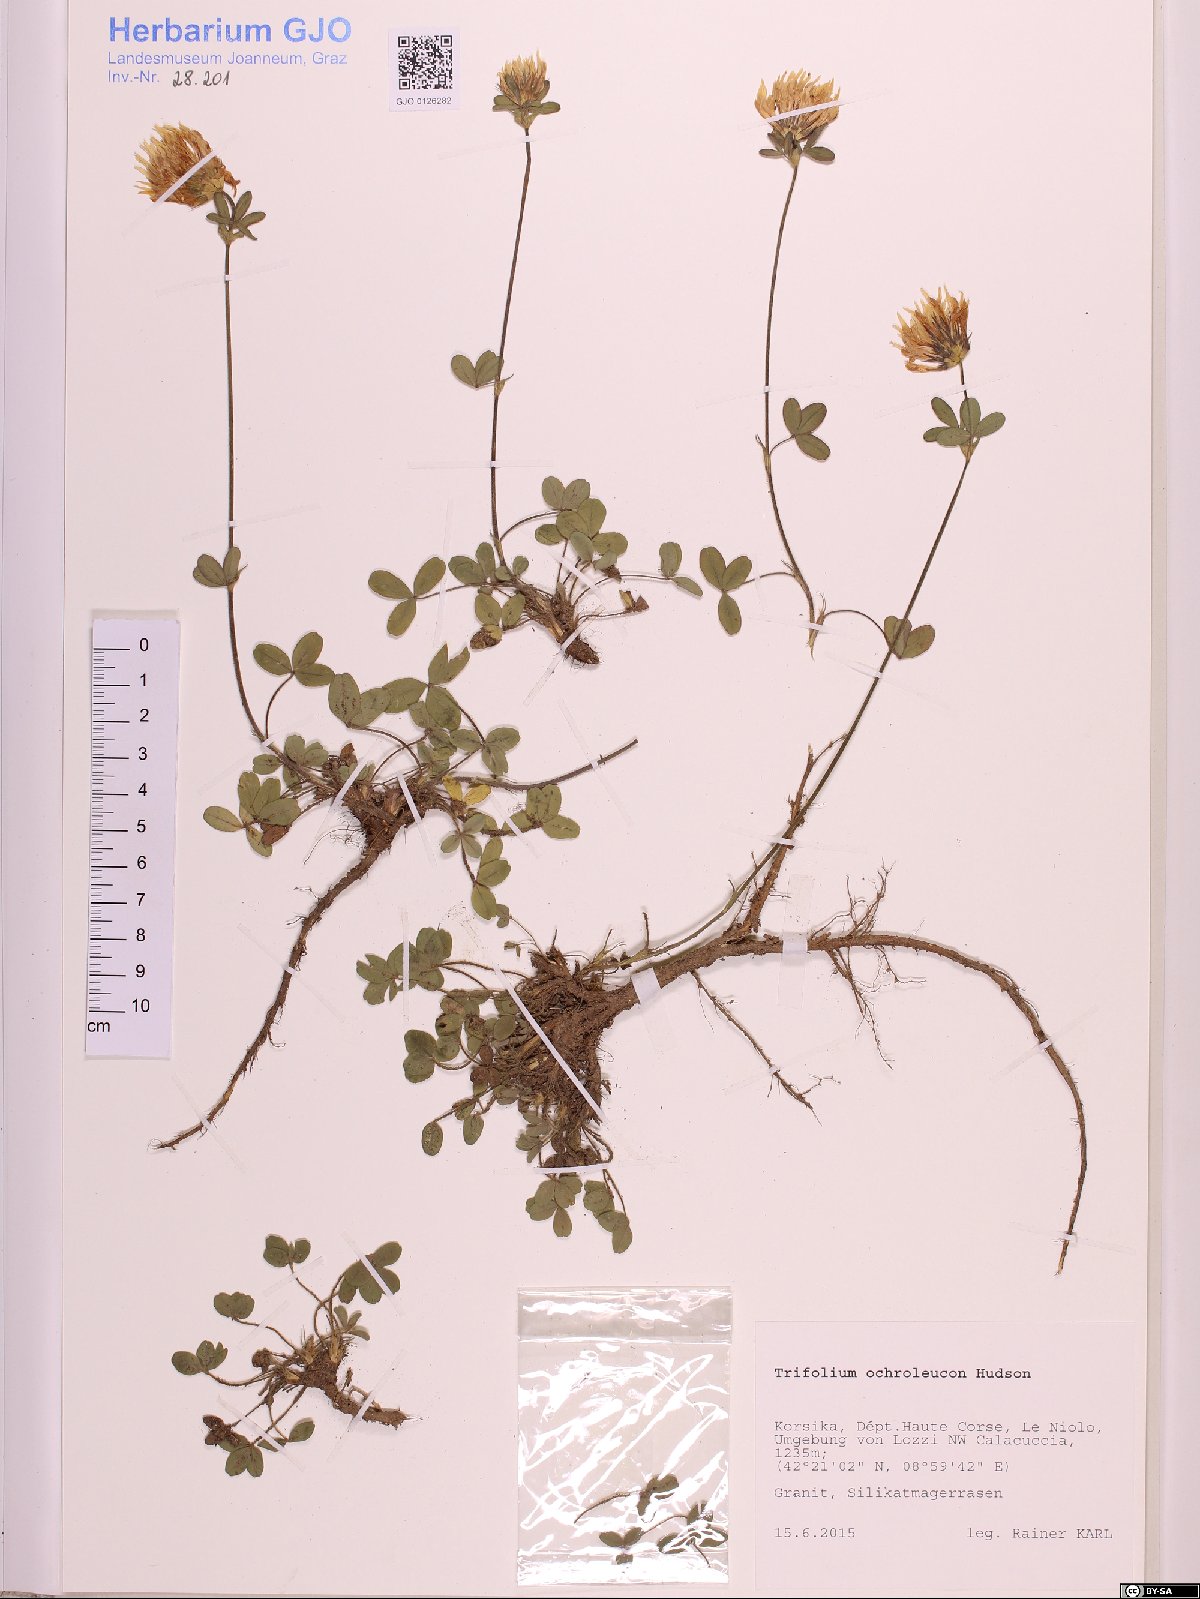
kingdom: Plantae
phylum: Tracheophyta
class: Magnoliopsida
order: Fabales
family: Fabaceae
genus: Trifolium
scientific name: Trifolium ochroleucon
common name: Sulphur clover
